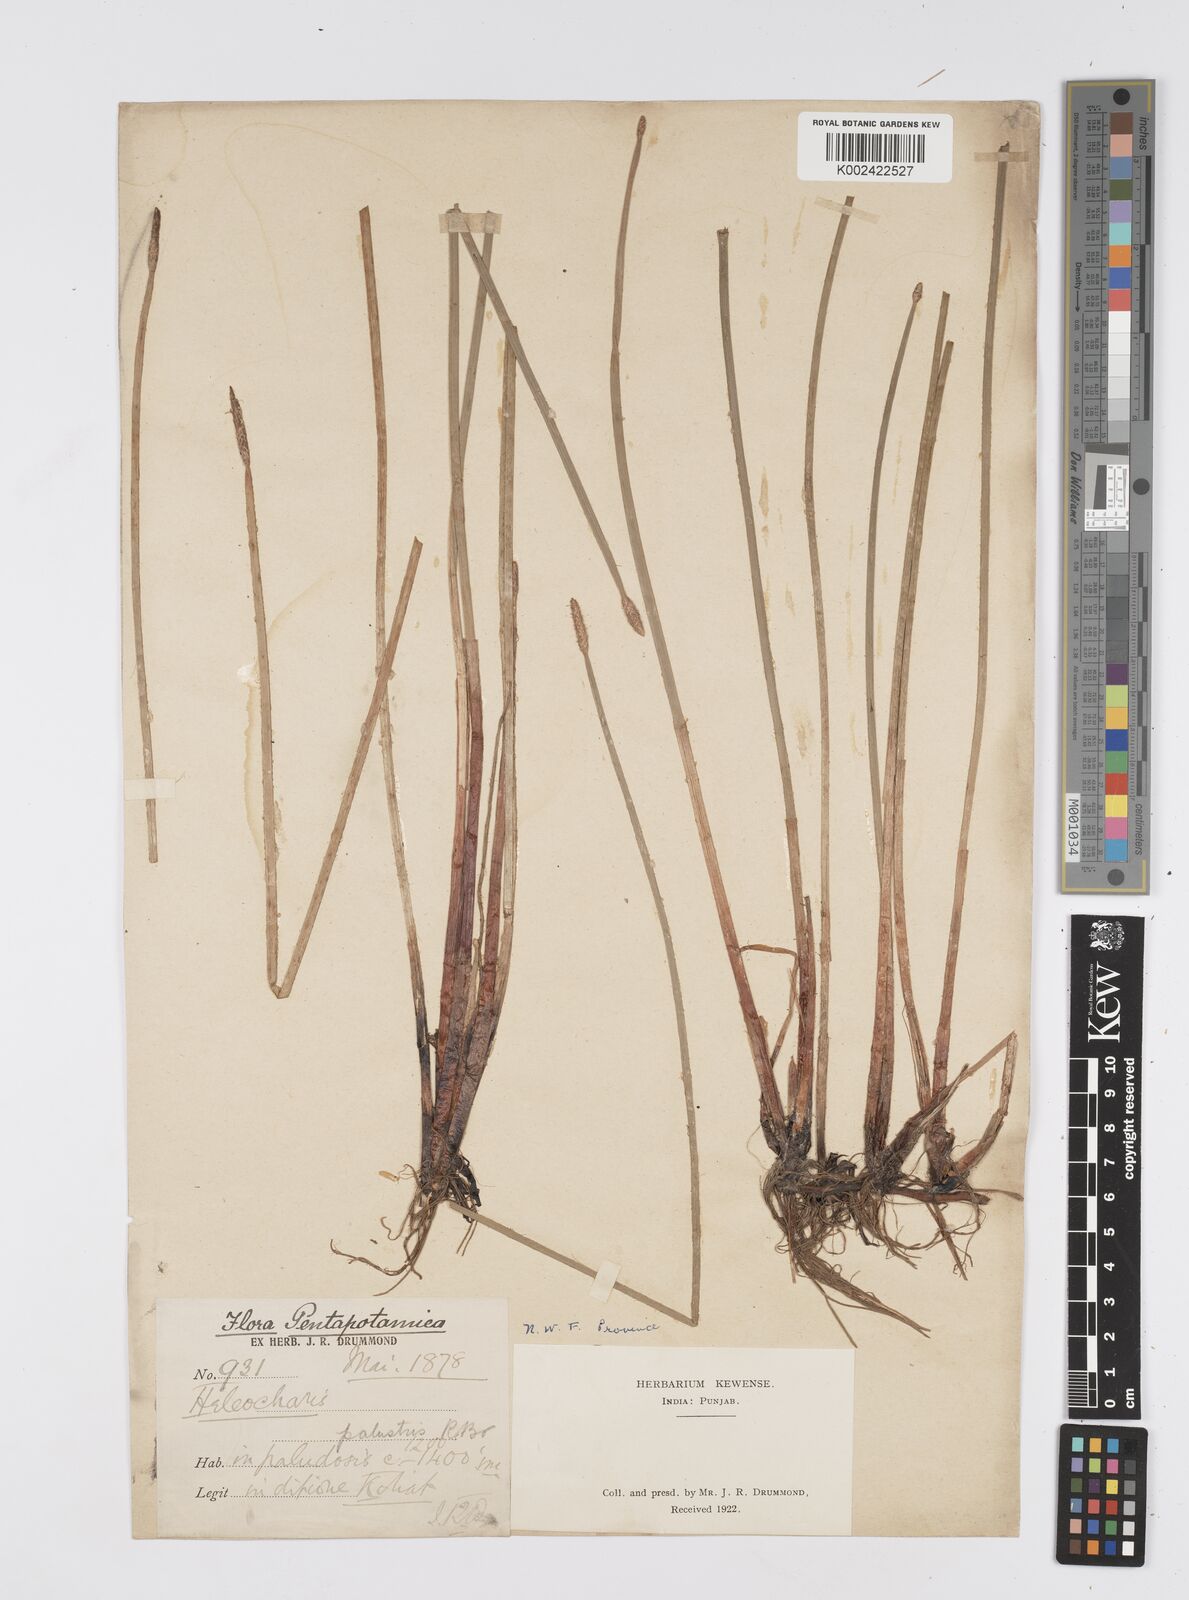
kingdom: Plantae
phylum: Tracheophyta
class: Liliopsida
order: Poales
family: Cyperaceae
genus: Eleocharis
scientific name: Eleocharis palustris
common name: Common spike-rush
